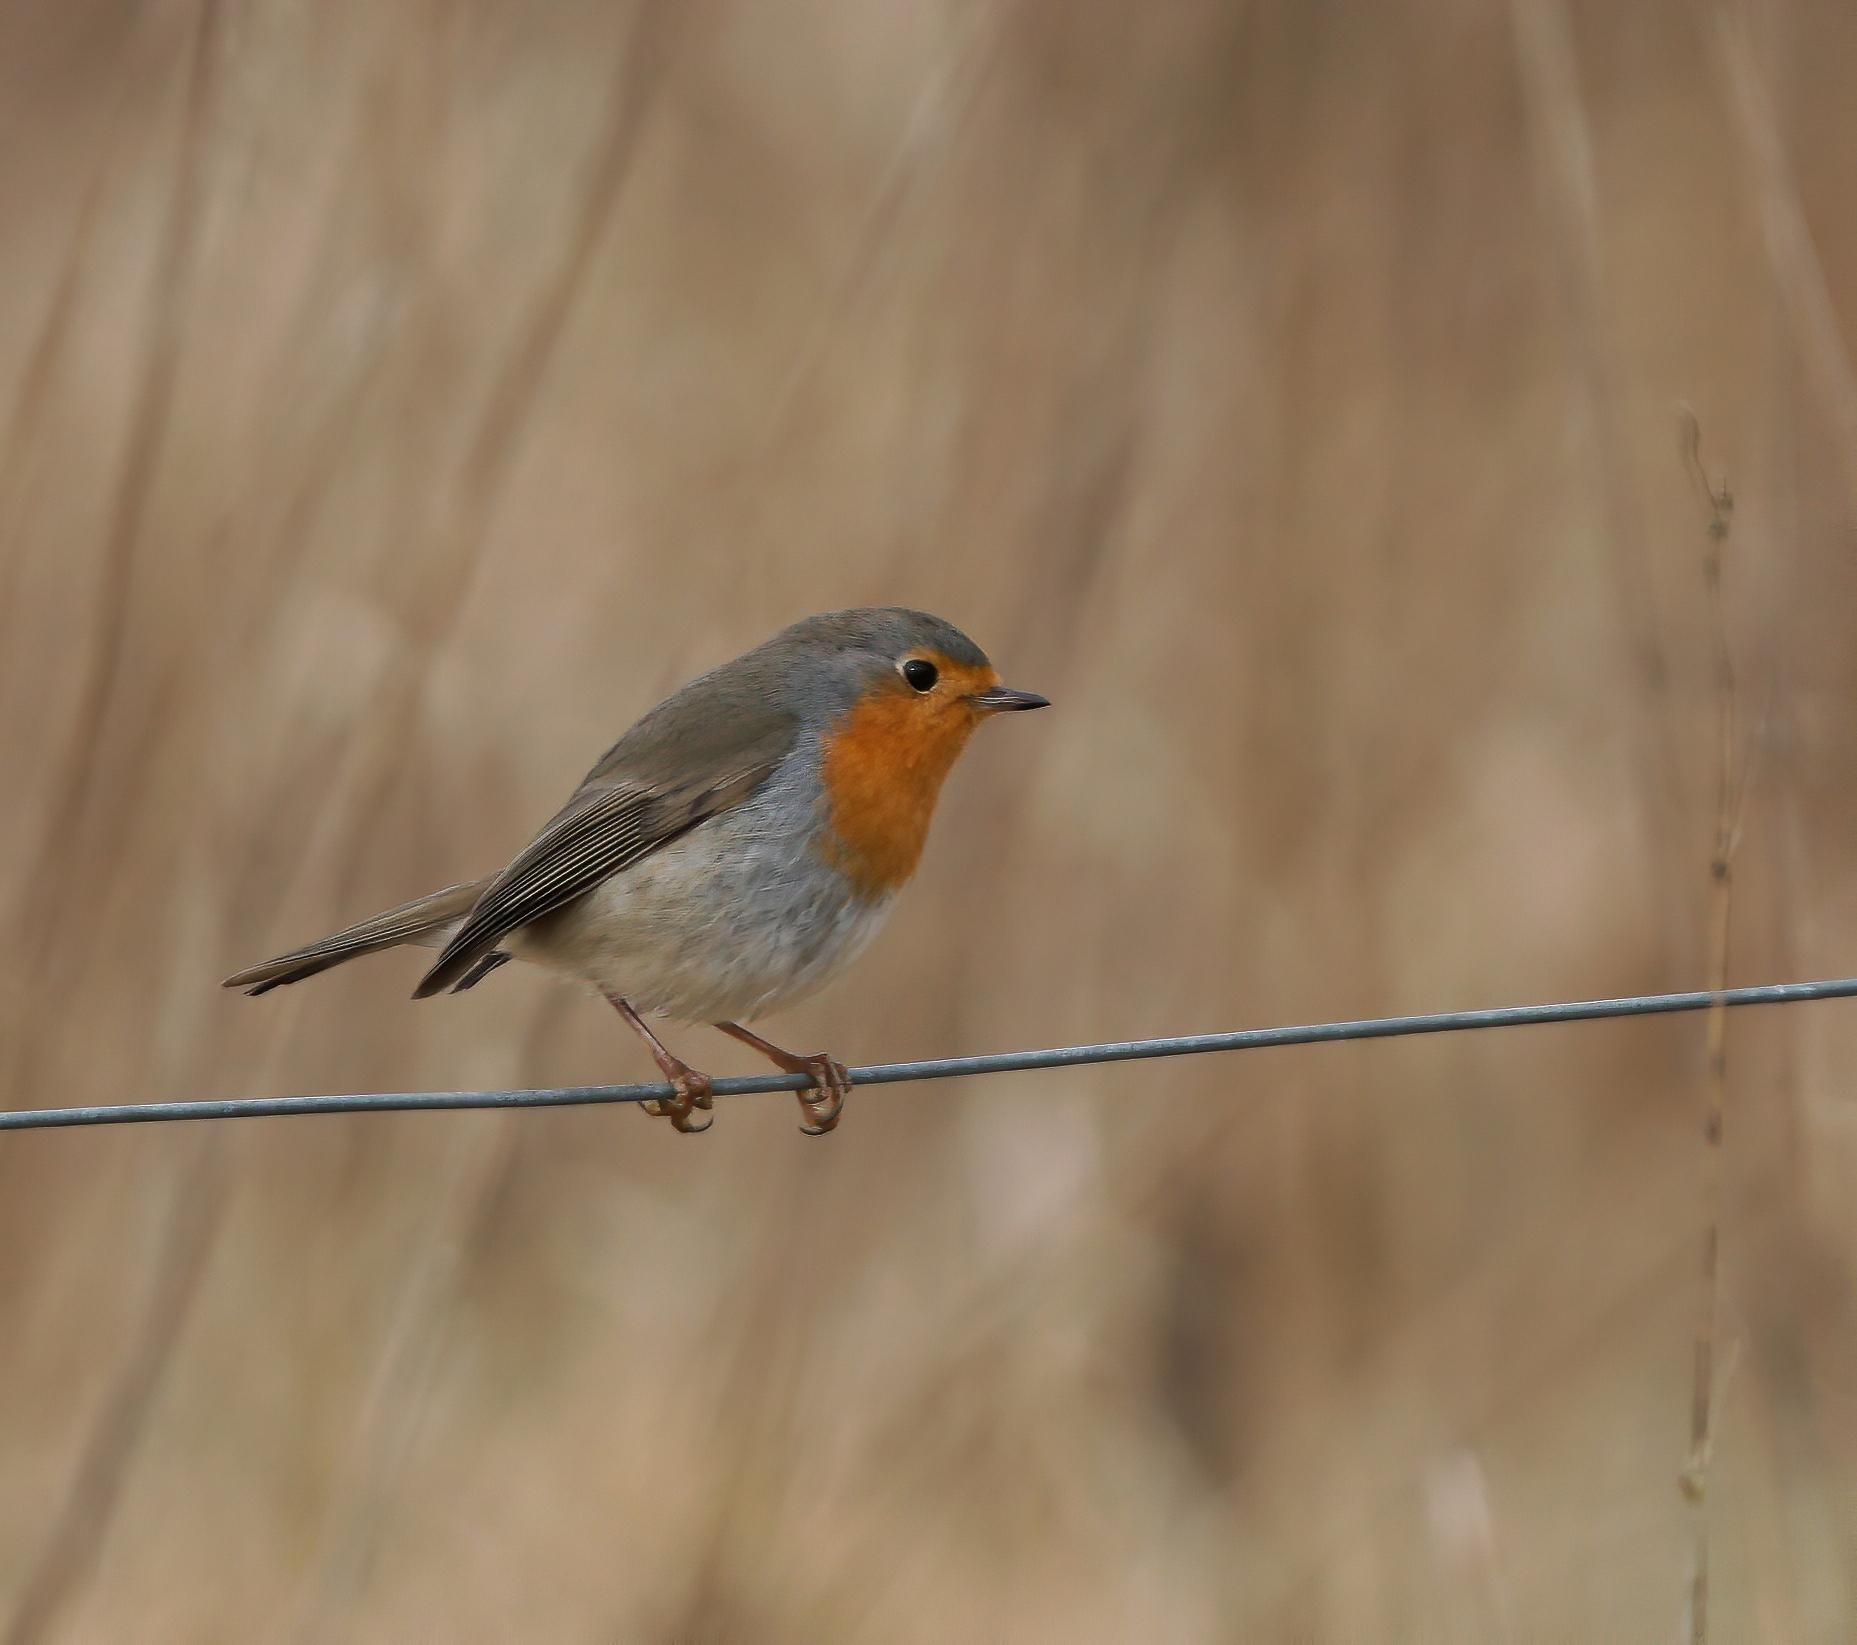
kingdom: Animalia
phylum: Chordata
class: Aves
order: Passeriformes
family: Muscicapidae
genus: Erithacus
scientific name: Erithacus rubecula
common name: Rødhals/rødkælk
